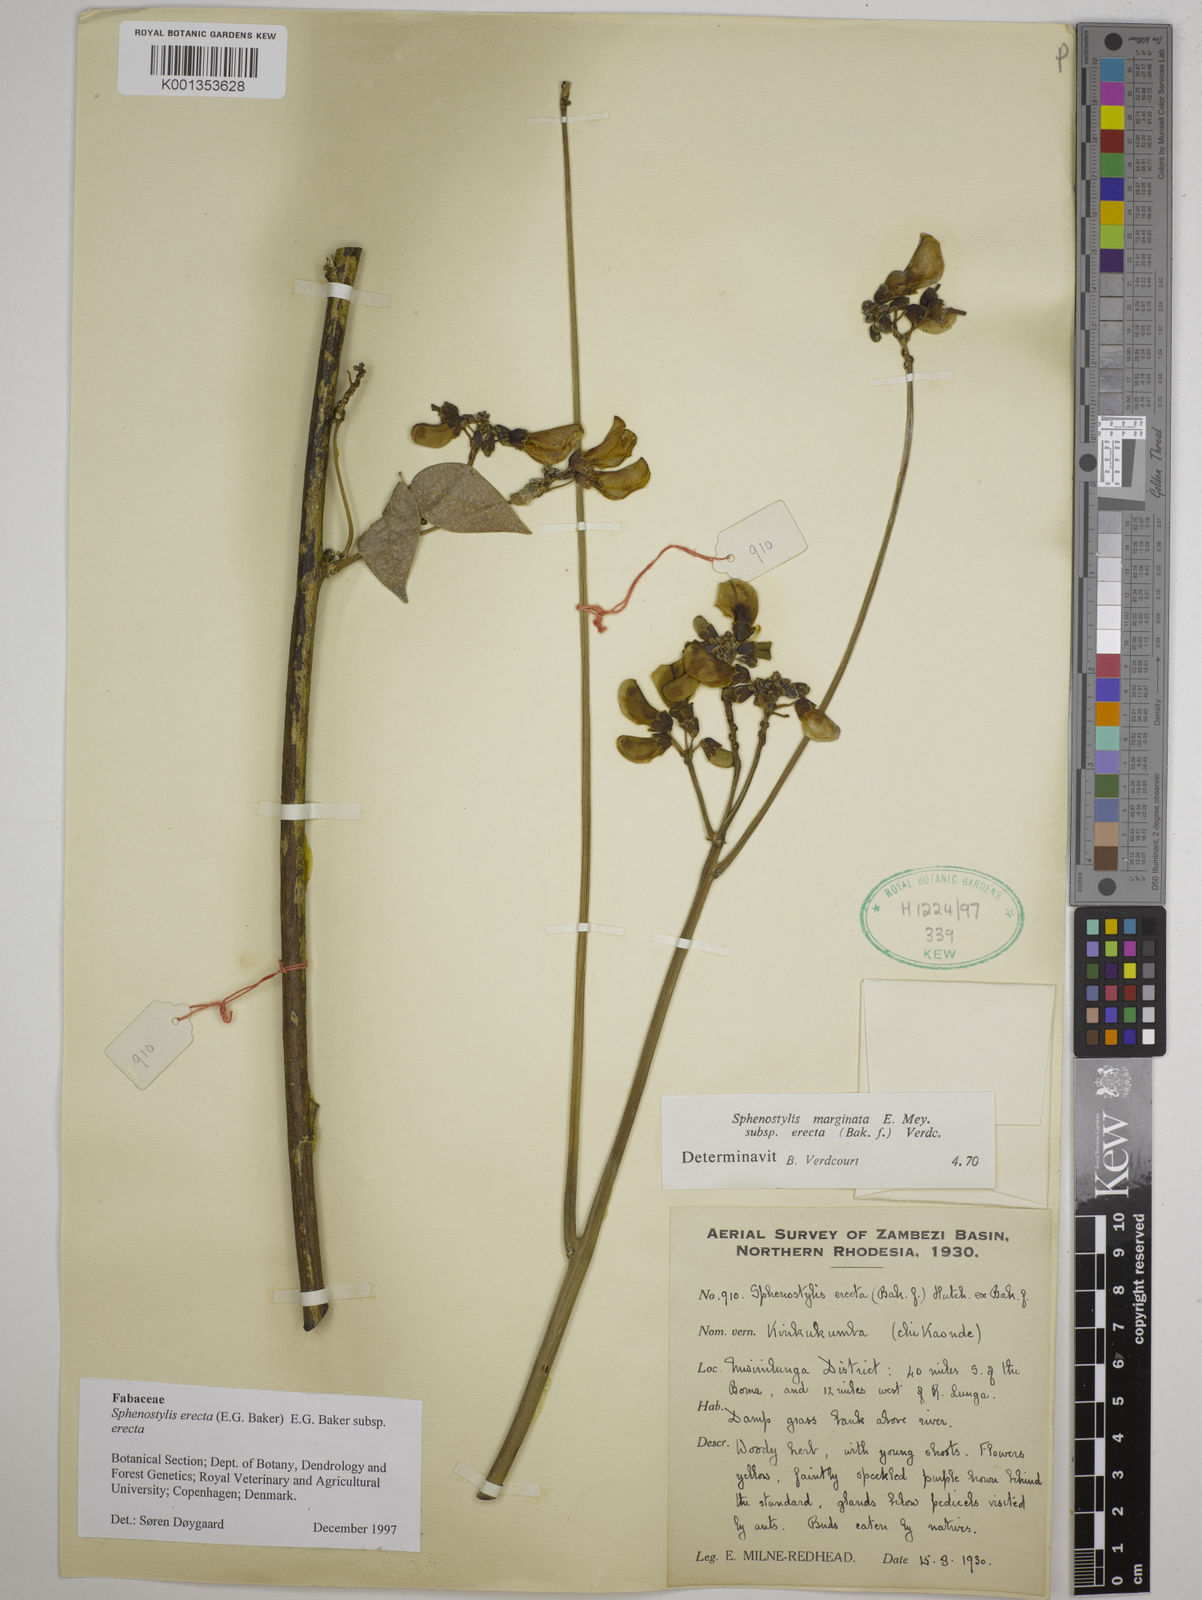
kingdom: Plantae
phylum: Tracheophyta
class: Magnoliopsida
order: Fabales
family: Fabaceae
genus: Sphenostylis
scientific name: Sphenostylis erecta
